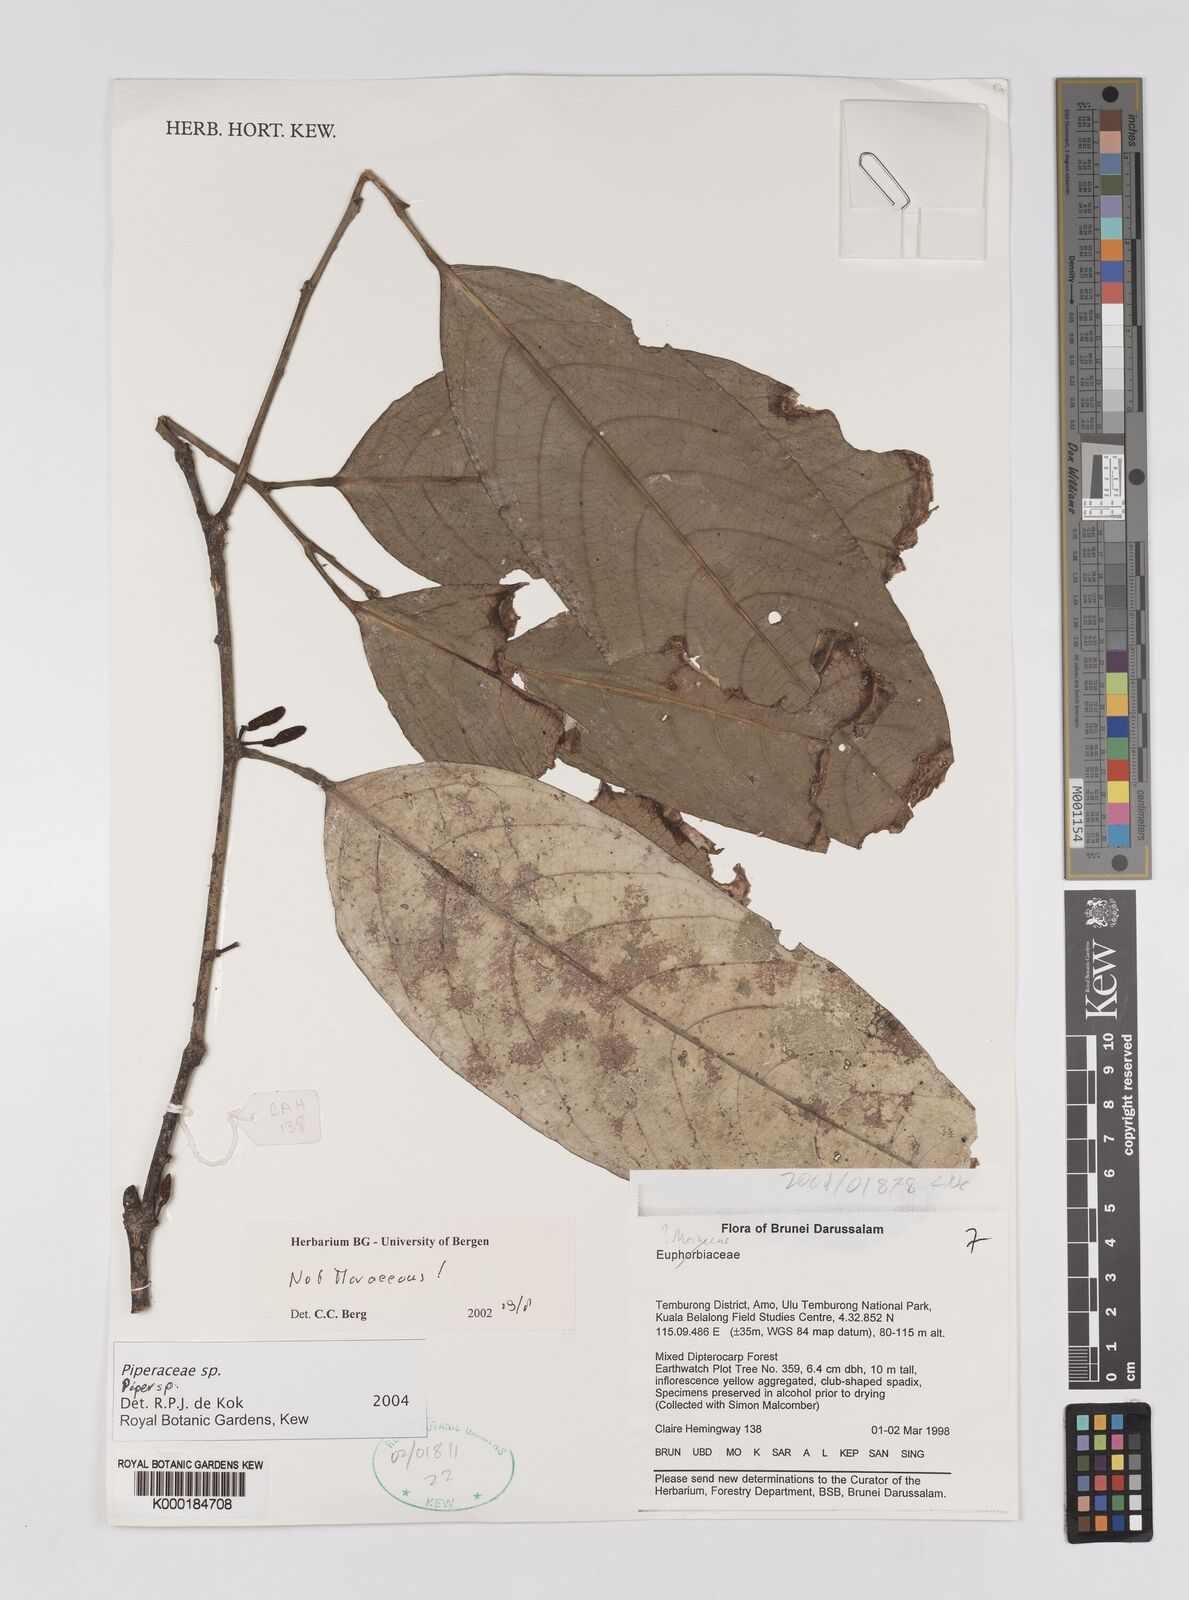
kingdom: Plantae
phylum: Tracheophyta
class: Magnoliopsida
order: Piperales
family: Piperaceae
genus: Piper
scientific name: Piper
